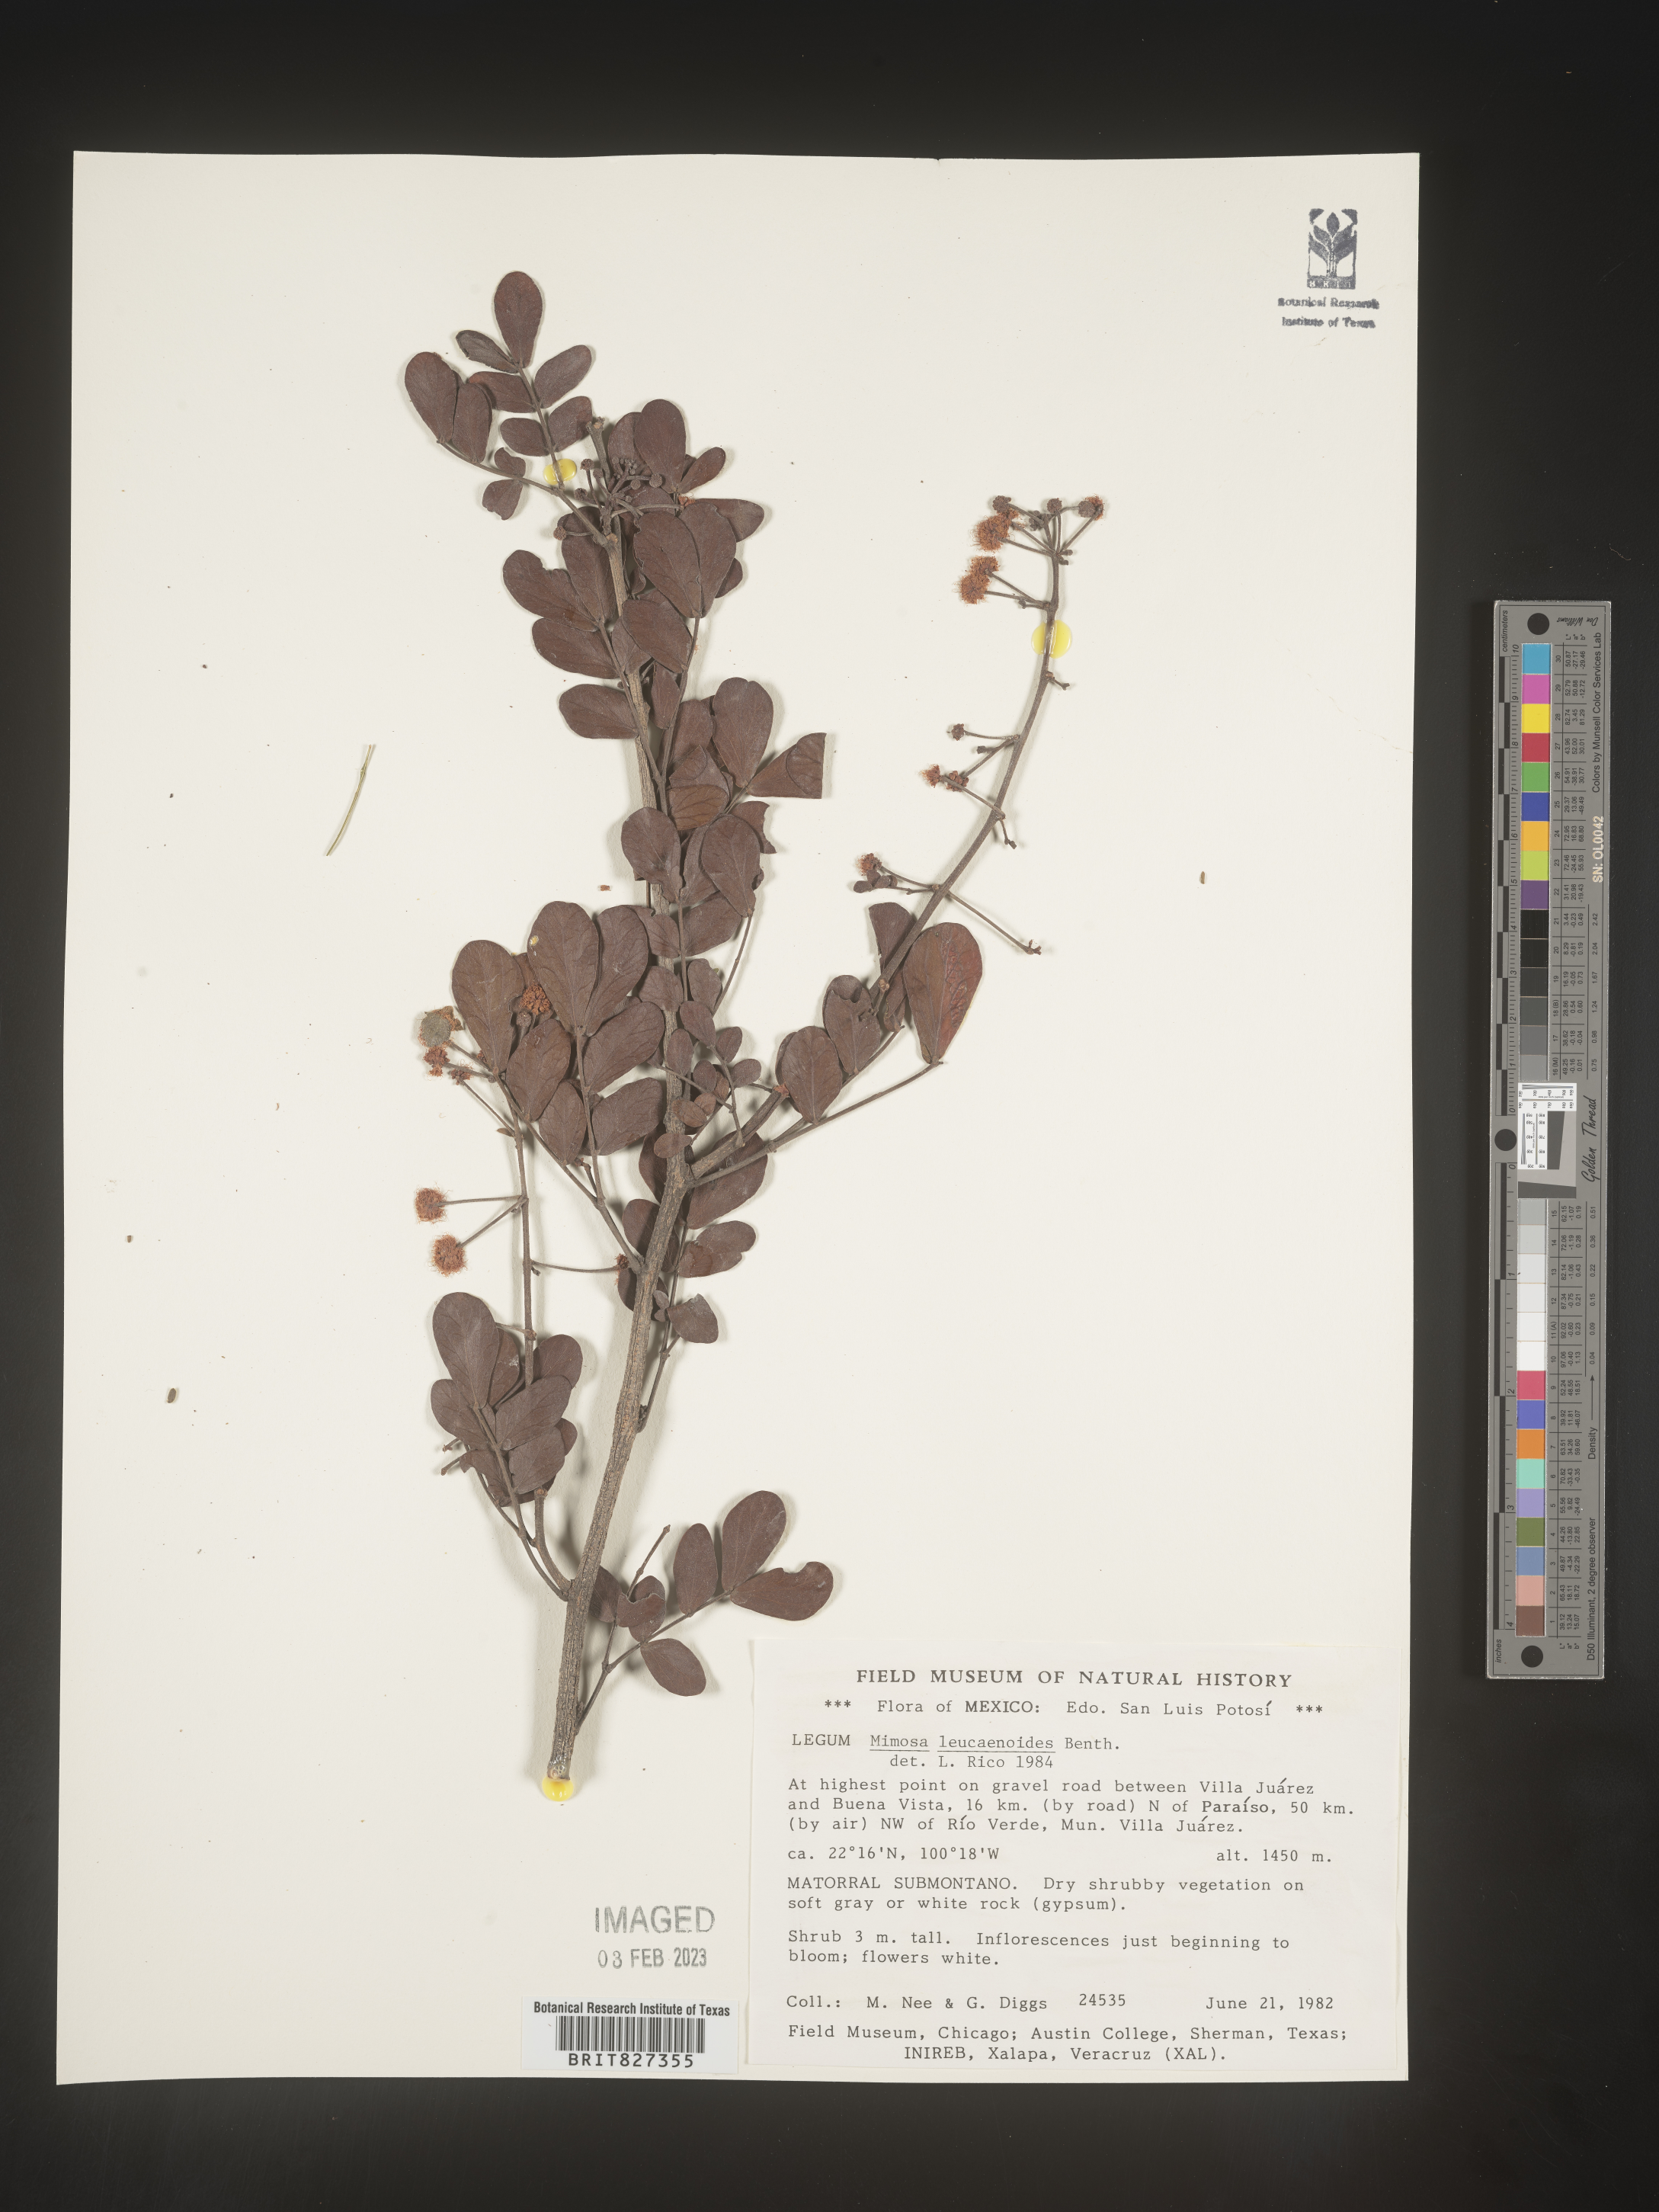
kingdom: Plantae
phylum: Tracheophyta
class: Magnoliopsida
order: Fabales
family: Fabaceae
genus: Mimosa
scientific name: Mimosa
